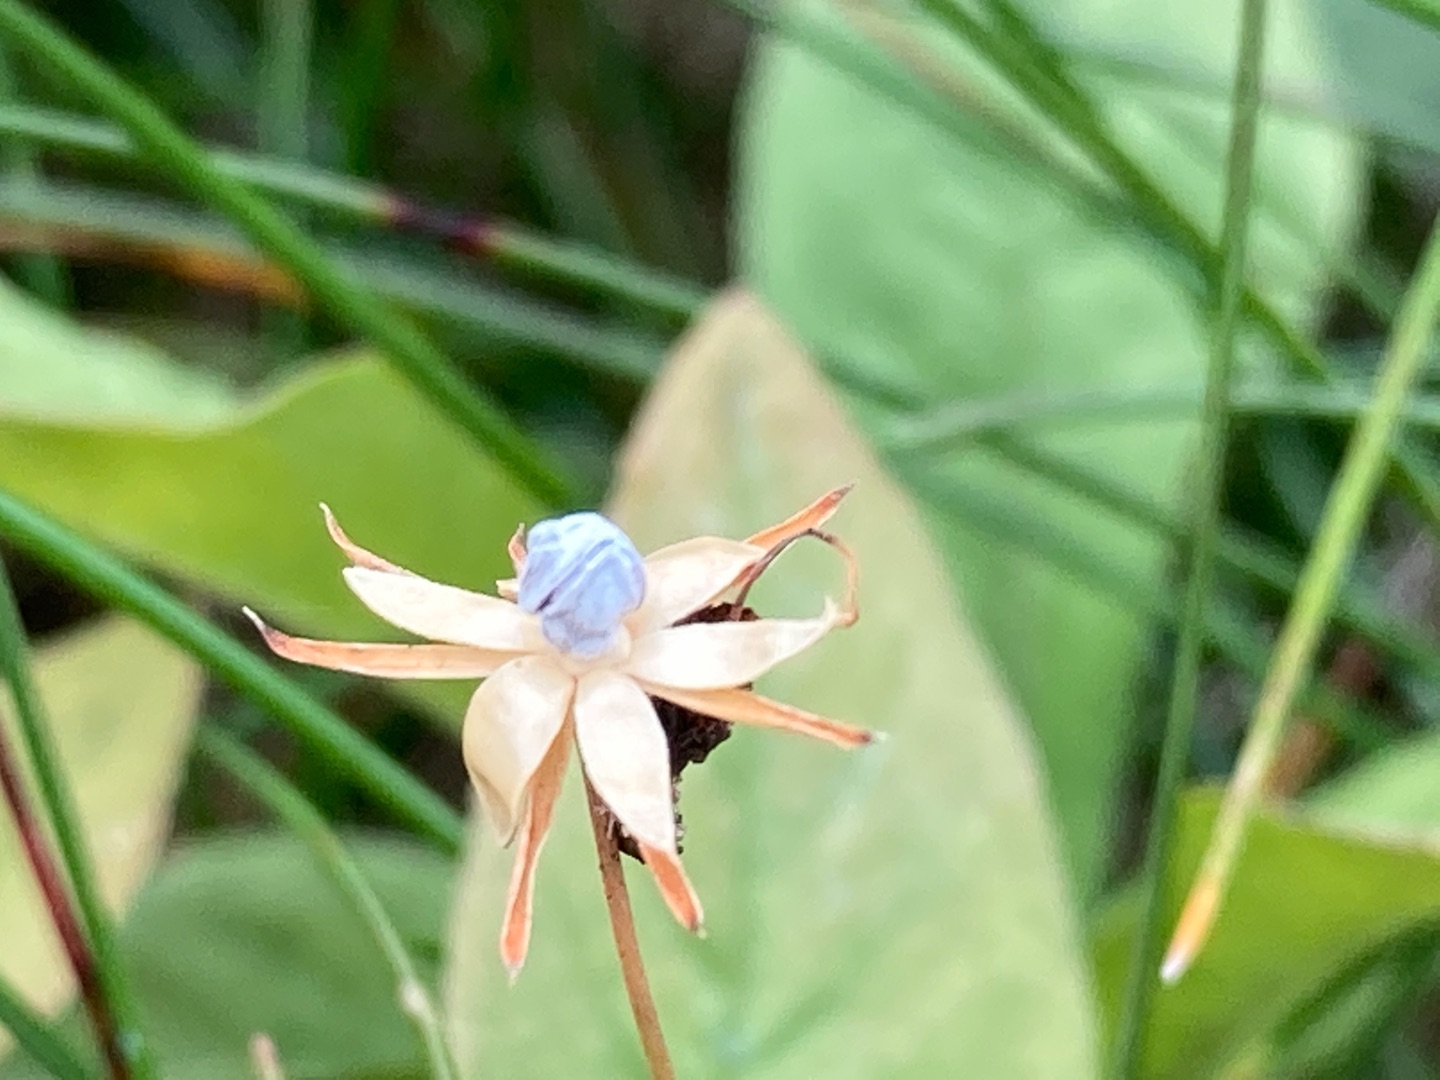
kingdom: Plantae
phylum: Tracheophyta
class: Magnoliopsida
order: Ericales
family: Primulaceae
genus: Lysimachia
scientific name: Lysimachia europaea
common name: Skovstjerne
